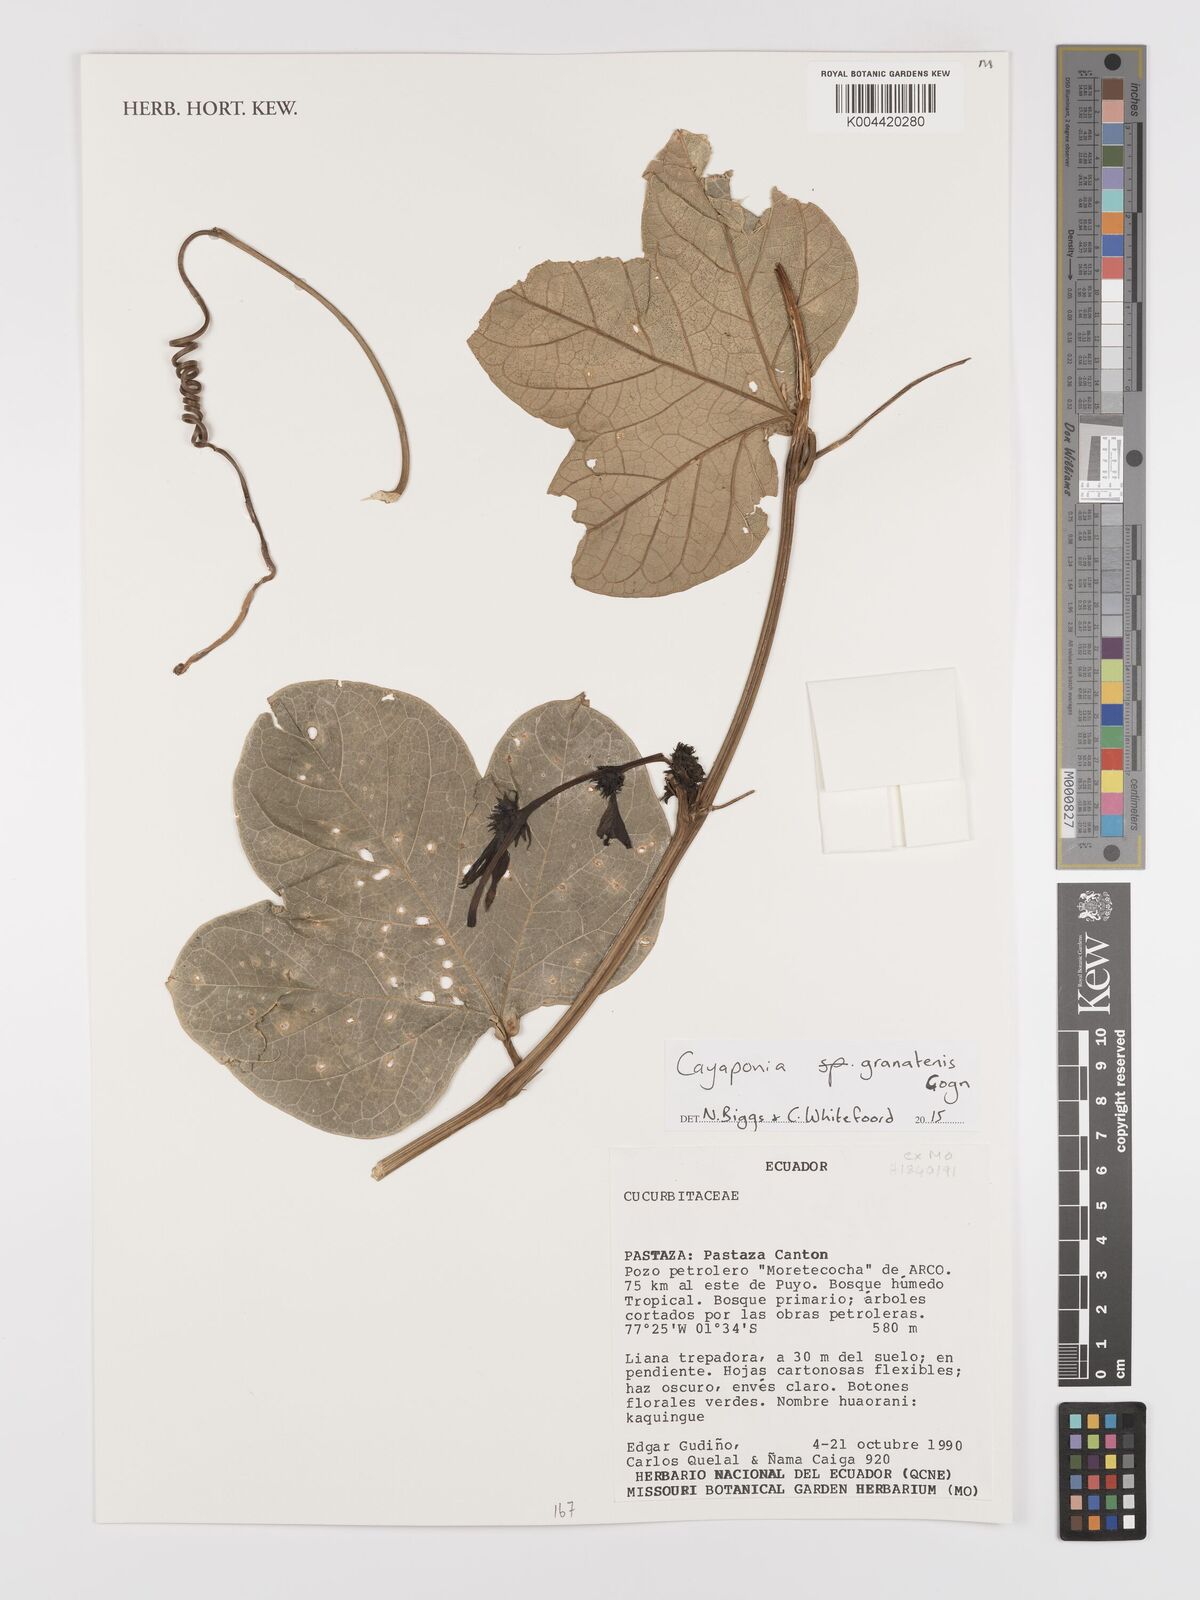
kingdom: Plantae
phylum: Tracheophyta
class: Magnoliopsida
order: Cucurbitales
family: Cucurbitaceae
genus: Cayaponia
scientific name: Cayaponia granatensis
